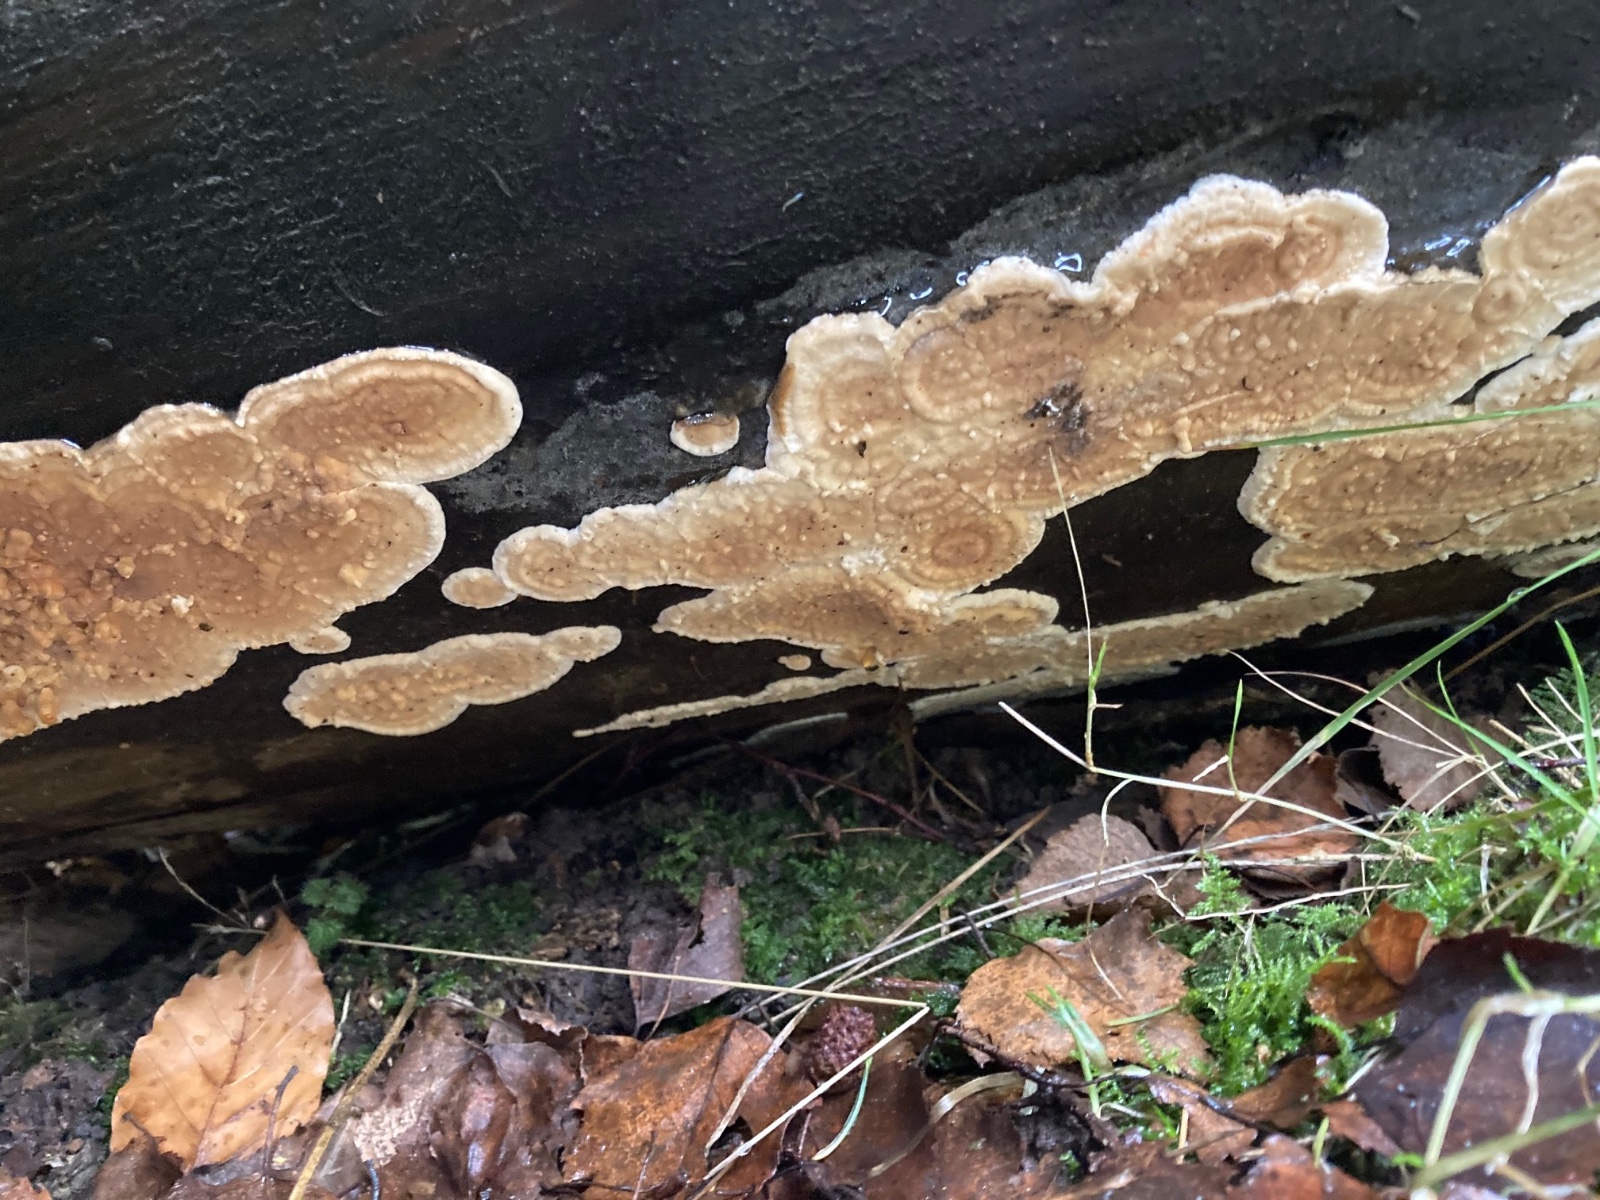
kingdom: Fungi
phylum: Basidiomycota
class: Agaricomycetes
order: Polyporales
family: Dacryobolaceae
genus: Dacryobolus
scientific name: Dacryobolus karstenii
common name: glat vulkanskorpe
